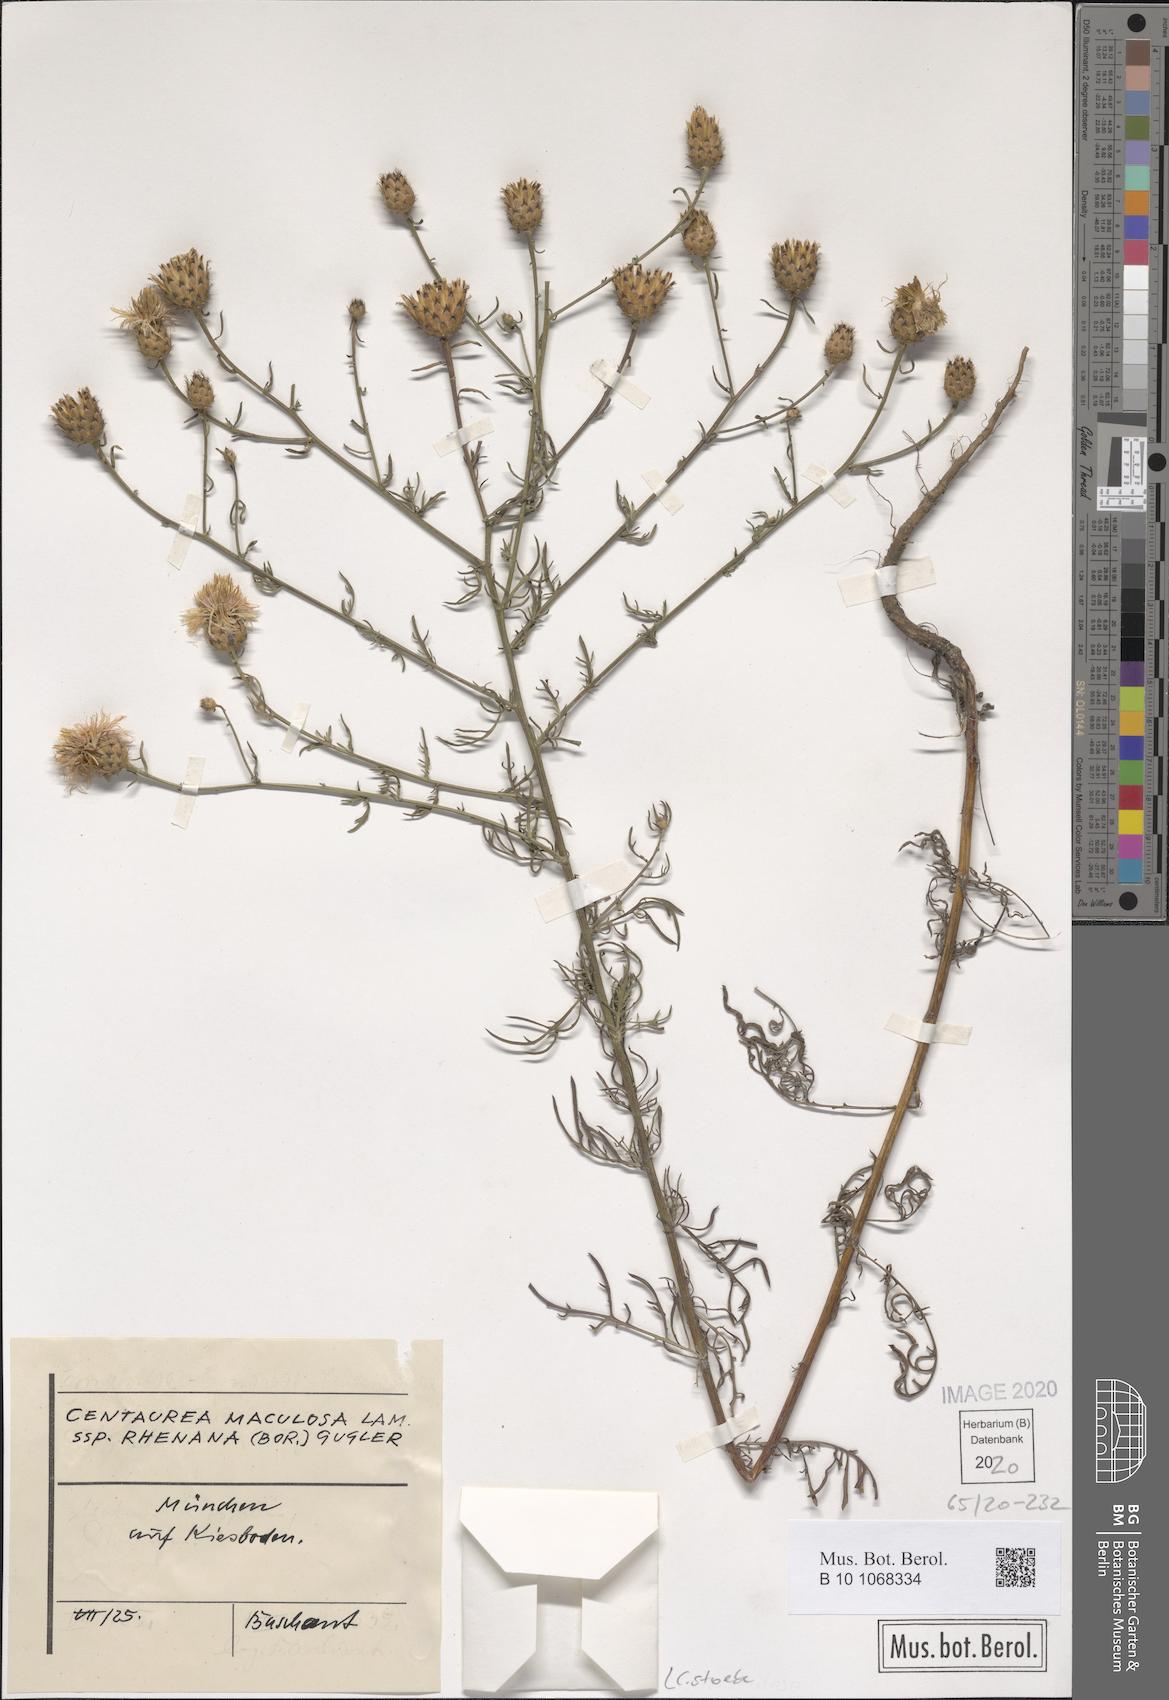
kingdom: Plantae
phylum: Tracheophyta
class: Magnoliopsida
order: Asterales
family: Asteraceae
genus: Centaurea
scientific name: Centaurea stoebe
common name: Spotted knapweed
